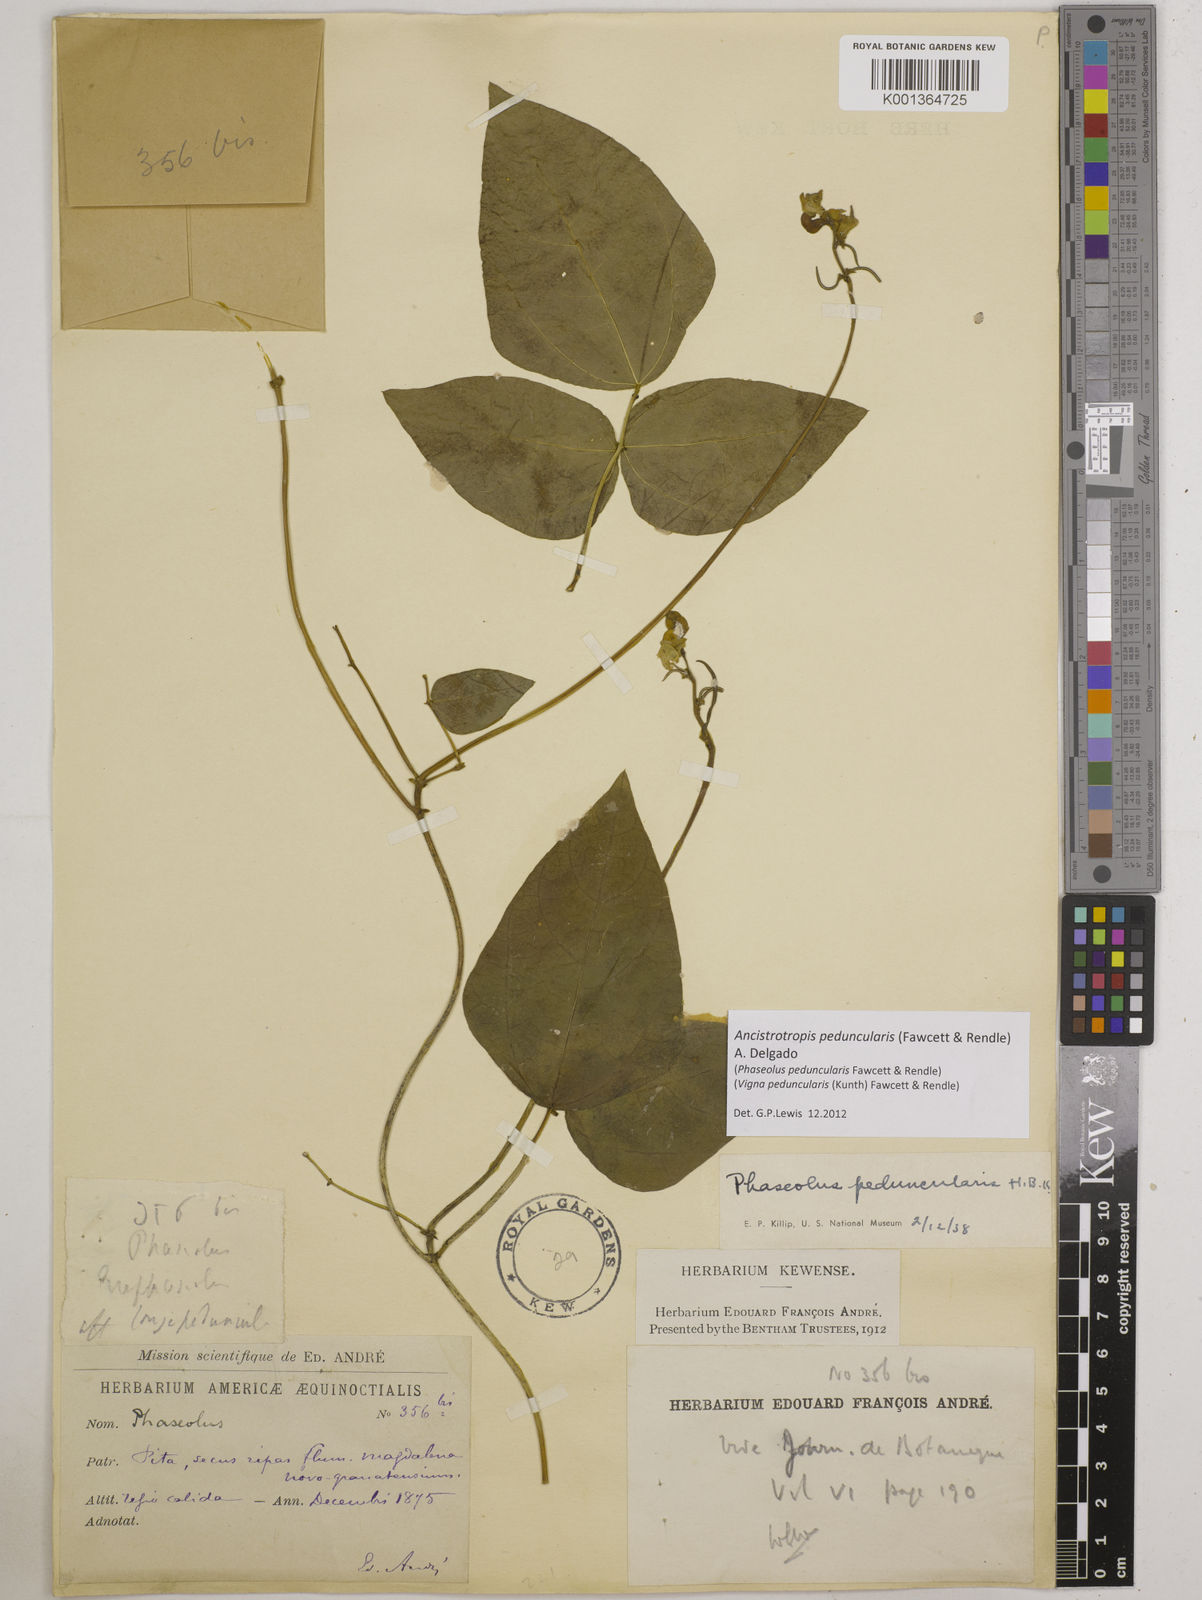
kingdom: Plantae
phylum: Tracheophyta
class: Magnoliopsida
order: Fabales
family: Fabaceae
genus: Ancistrotropis
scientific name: Ancistrotropis peduncularis
